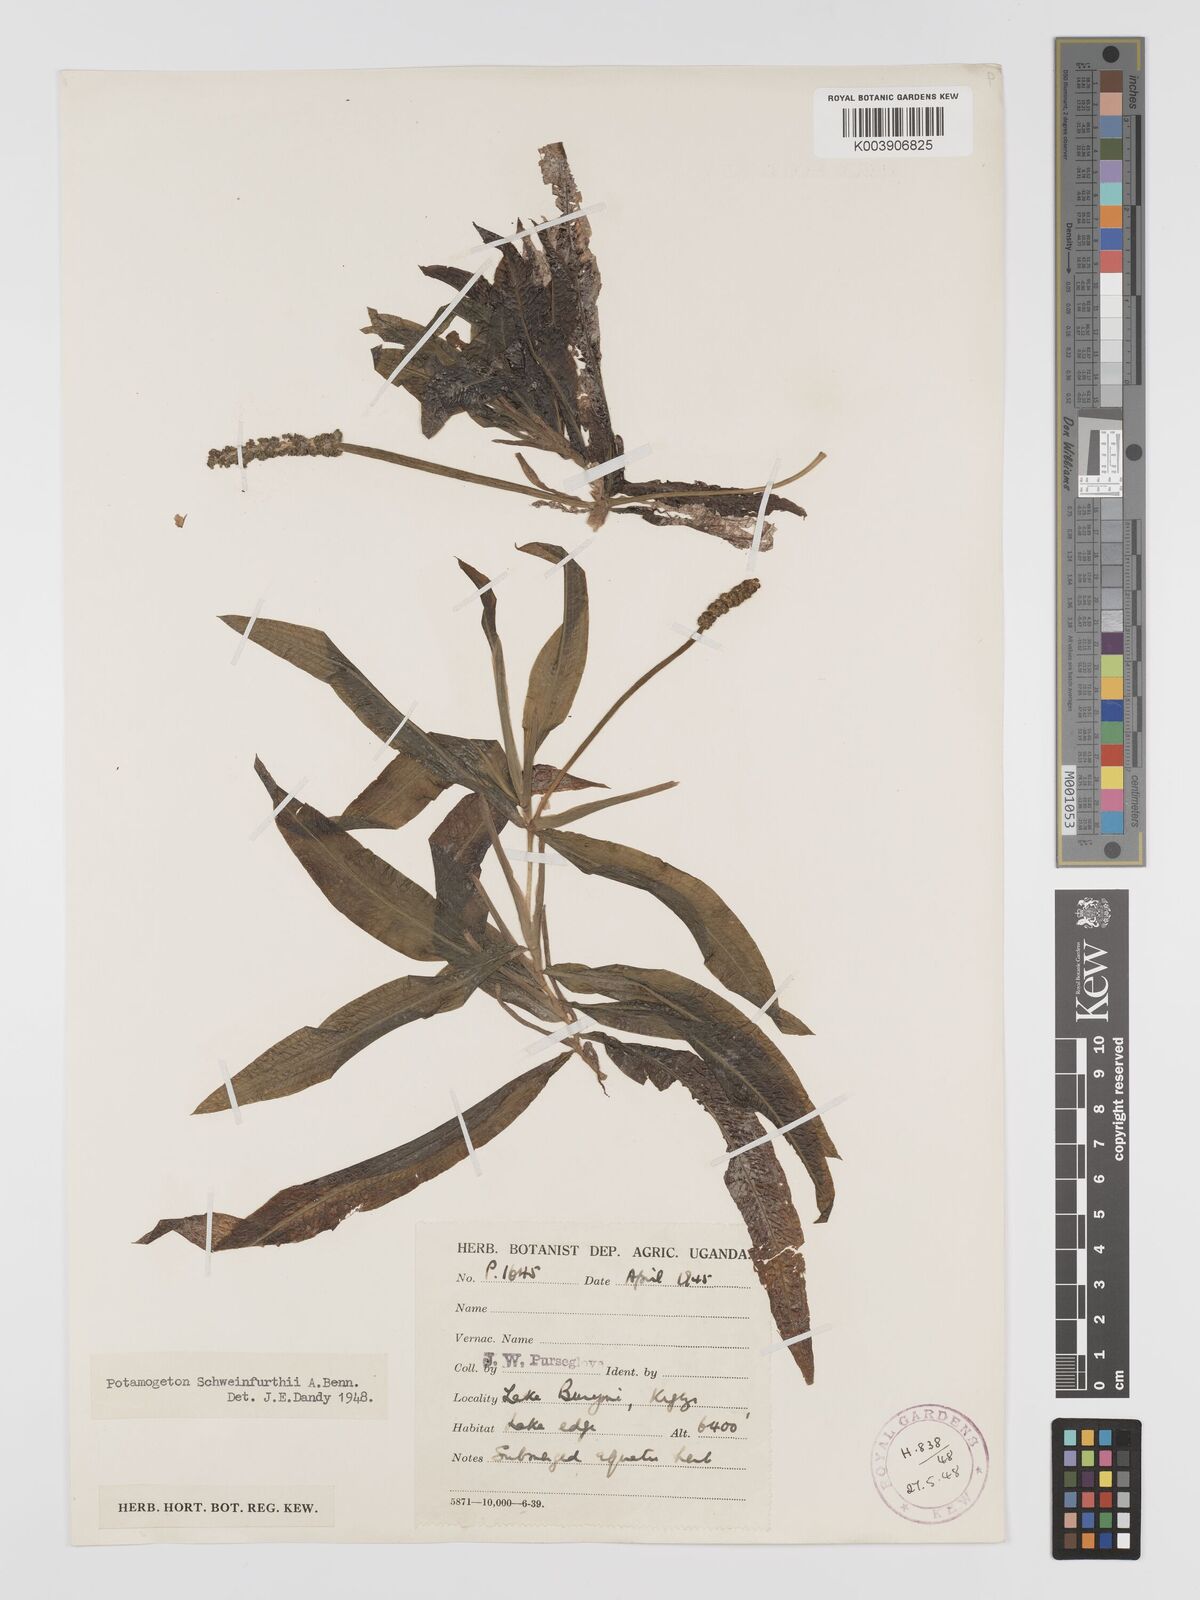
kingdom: Plantae
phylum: Tracheophyta
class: Liliopsida
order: Alismatales
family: Potamogetonaceae
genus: Potamogeton
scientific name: Potamogeton schweinfurthii
